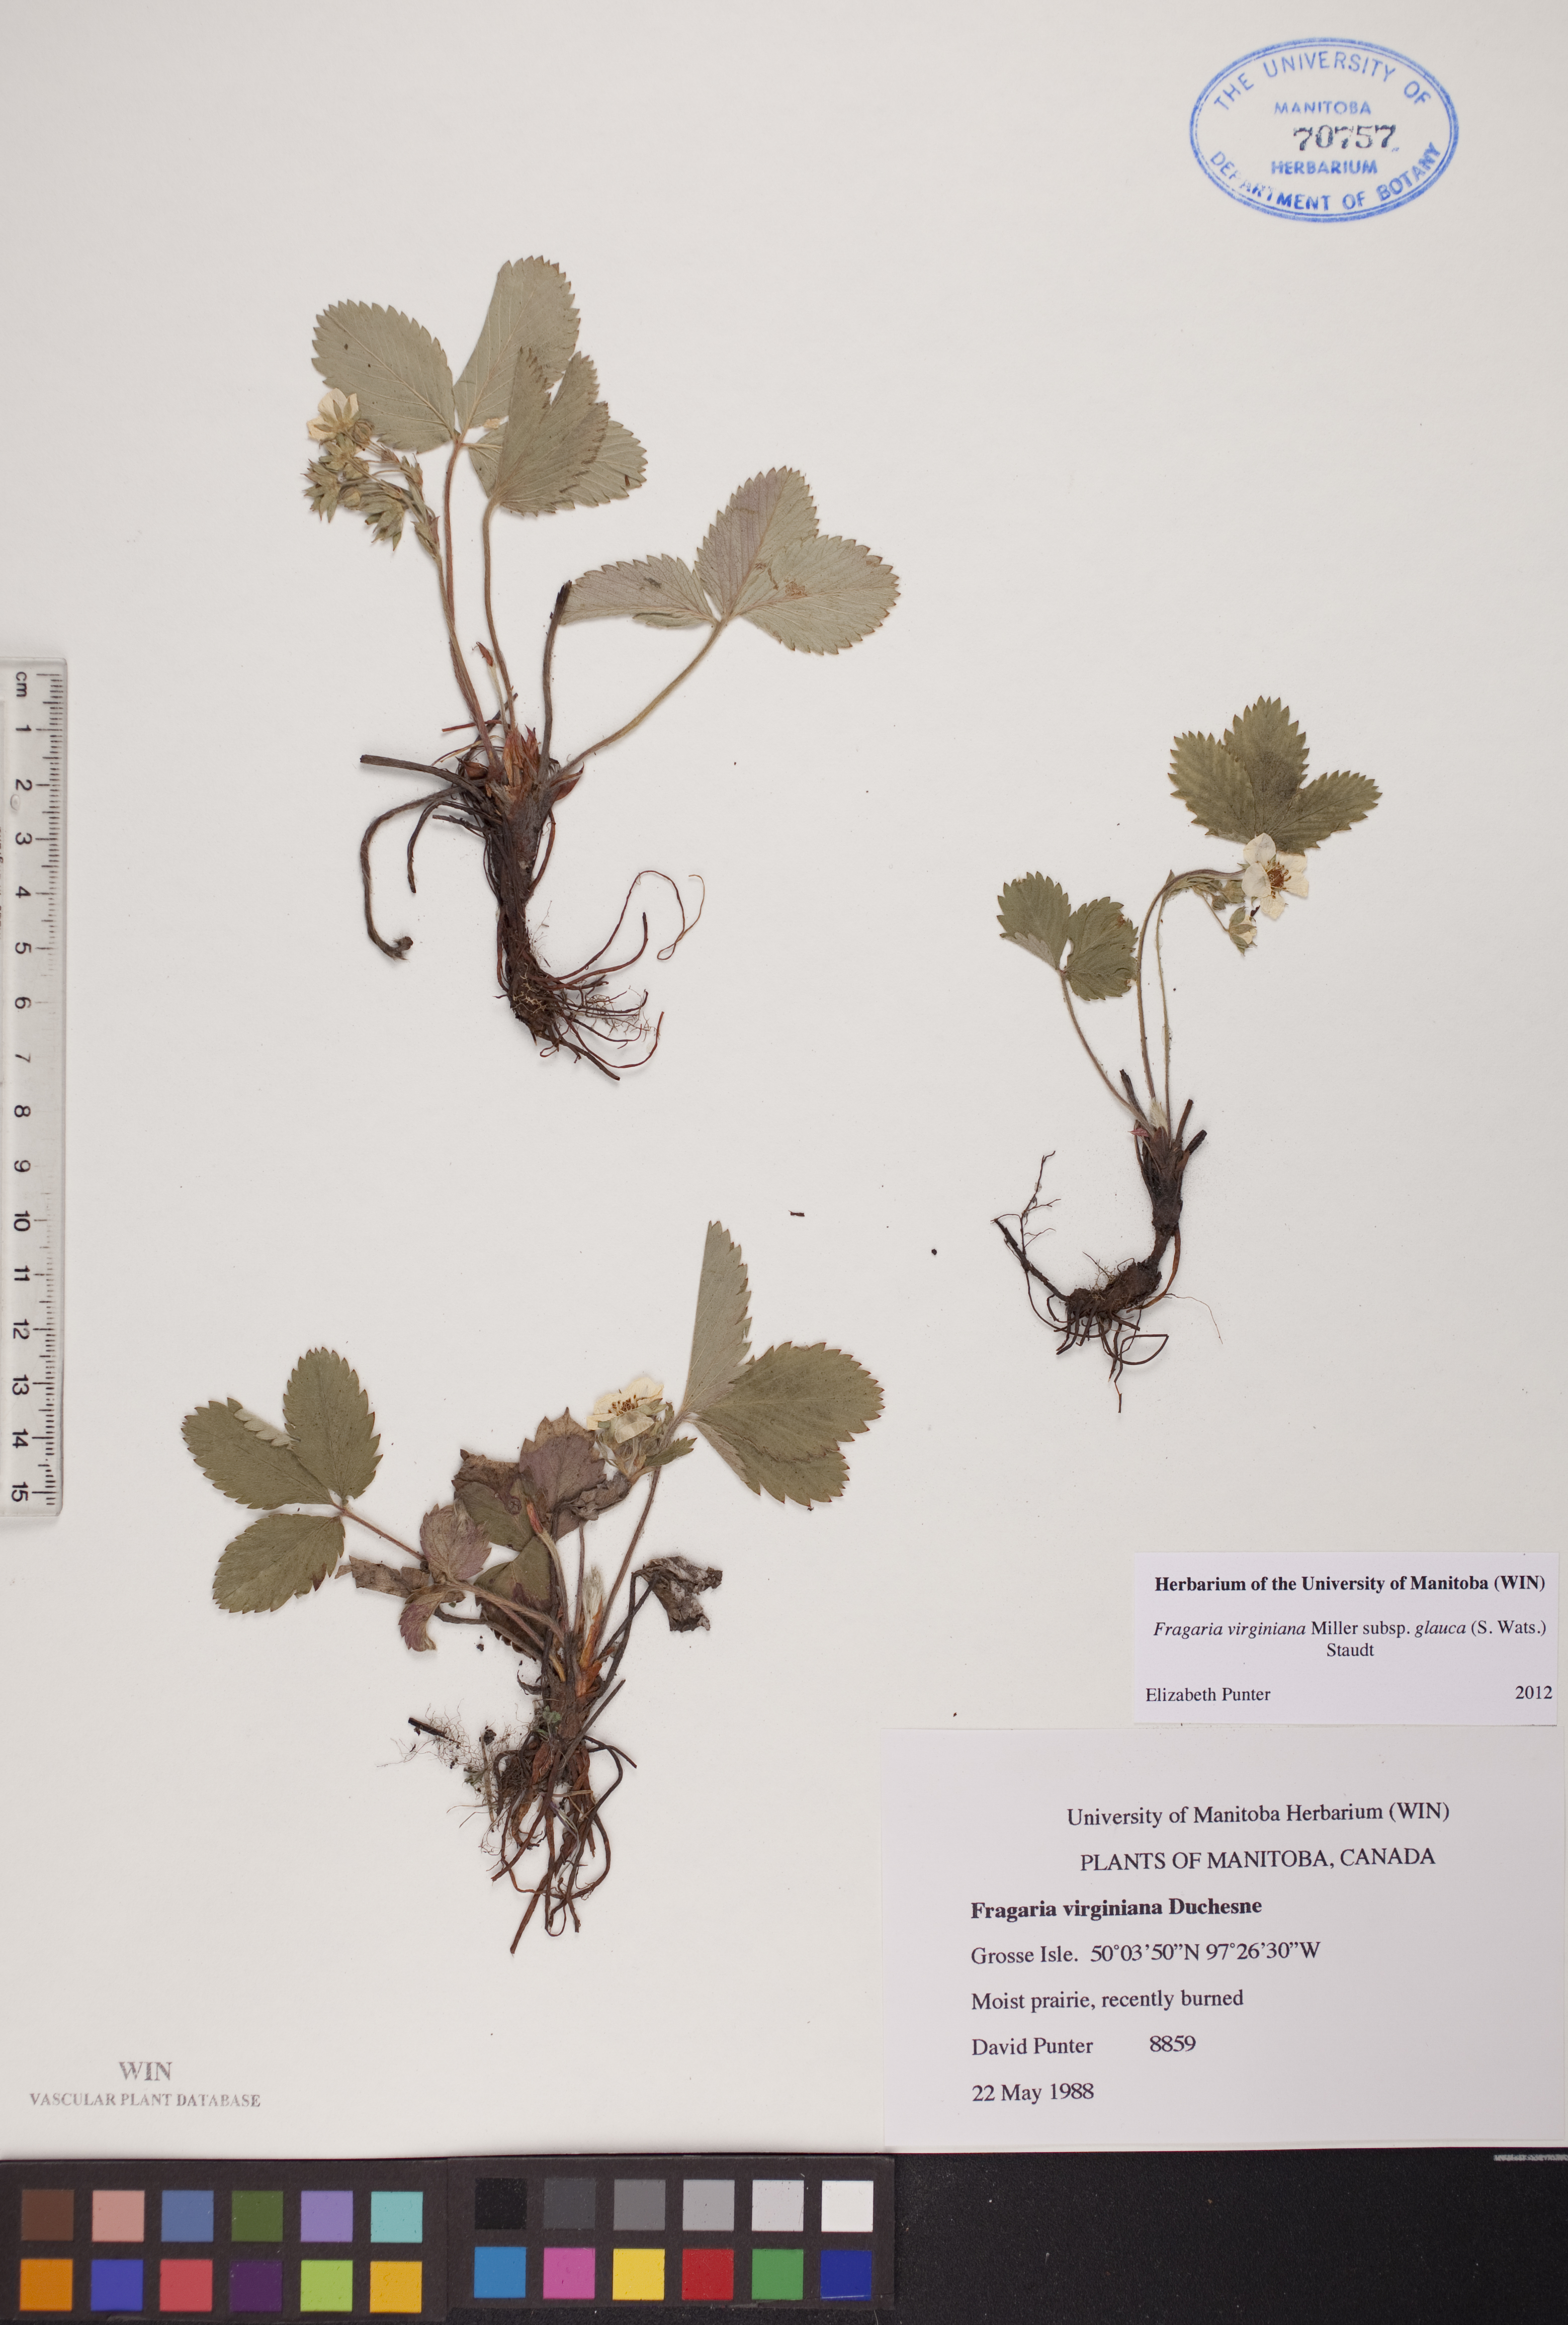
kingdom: Plantae
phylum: Tracheophyta
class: Magnoliopsida
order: Rosales
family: Rosaceae
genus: Fragaria
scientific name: Fragaria virginiana
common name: Thickleaved wild strawberry
